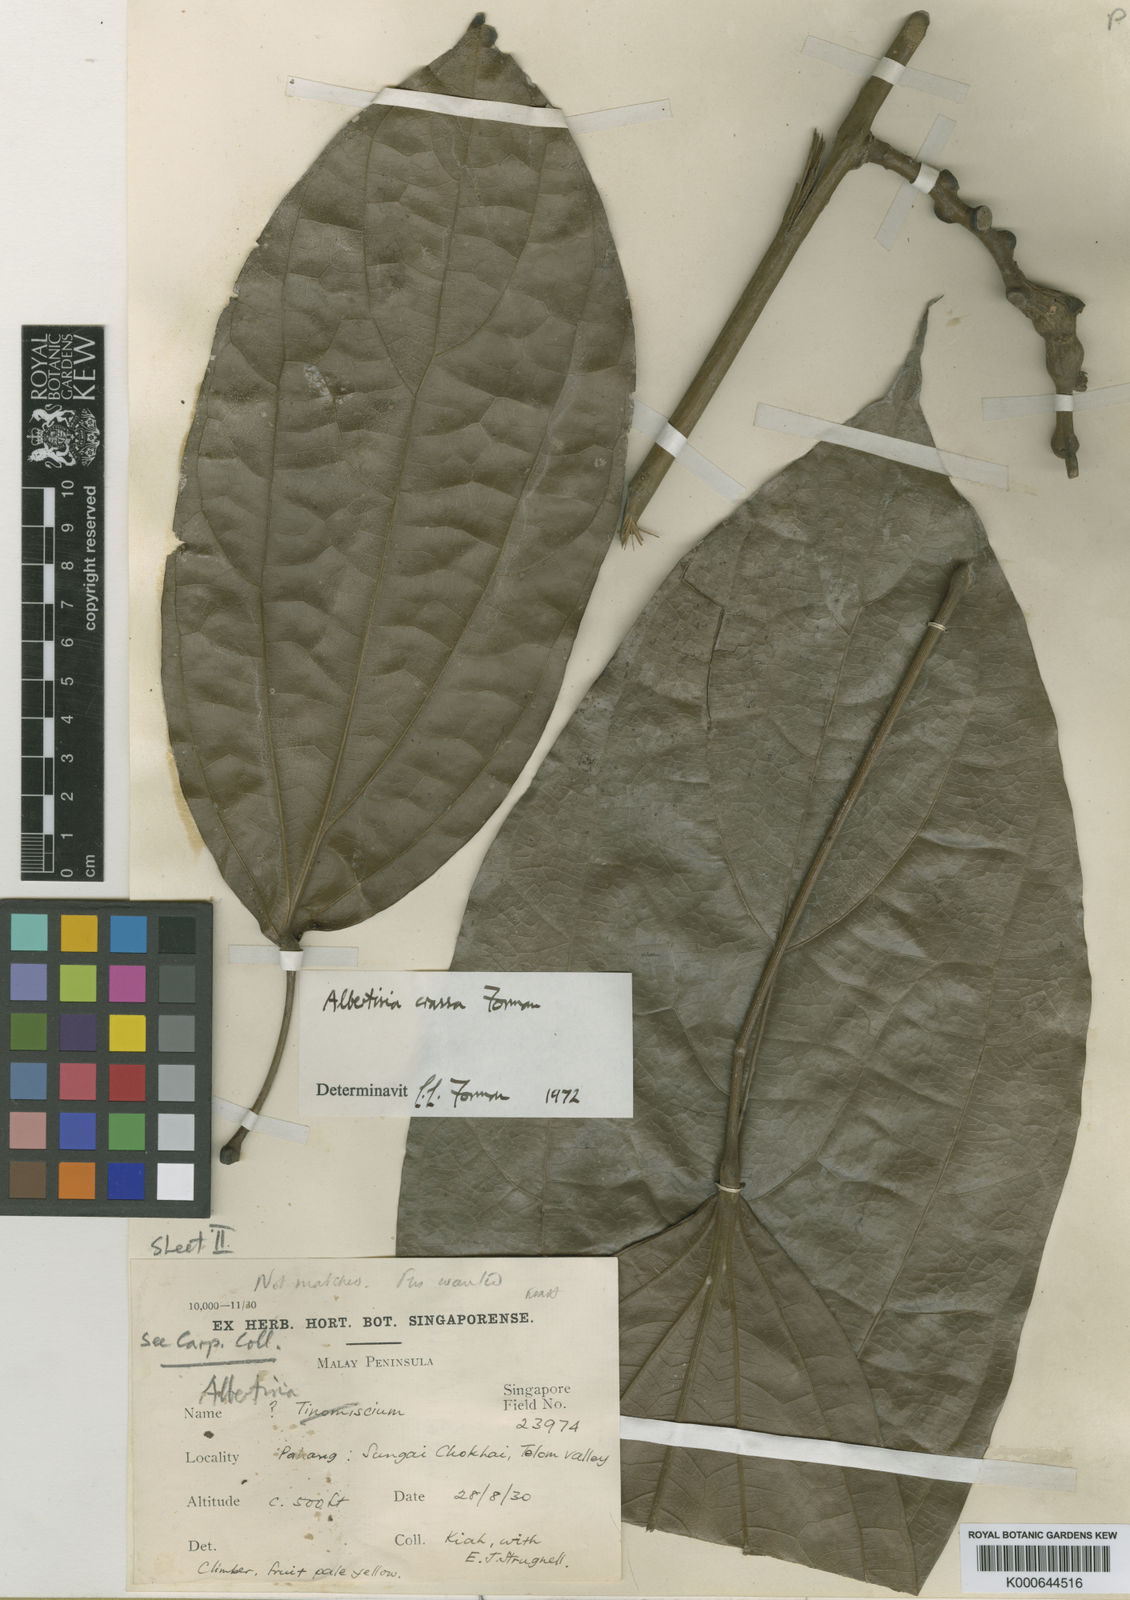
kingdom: Plantae
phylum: Tracheophyta
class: Magnoliopsida
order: Ranunculales
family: Menispermaceae
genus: Albertisia
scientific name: Albertisia crassa
